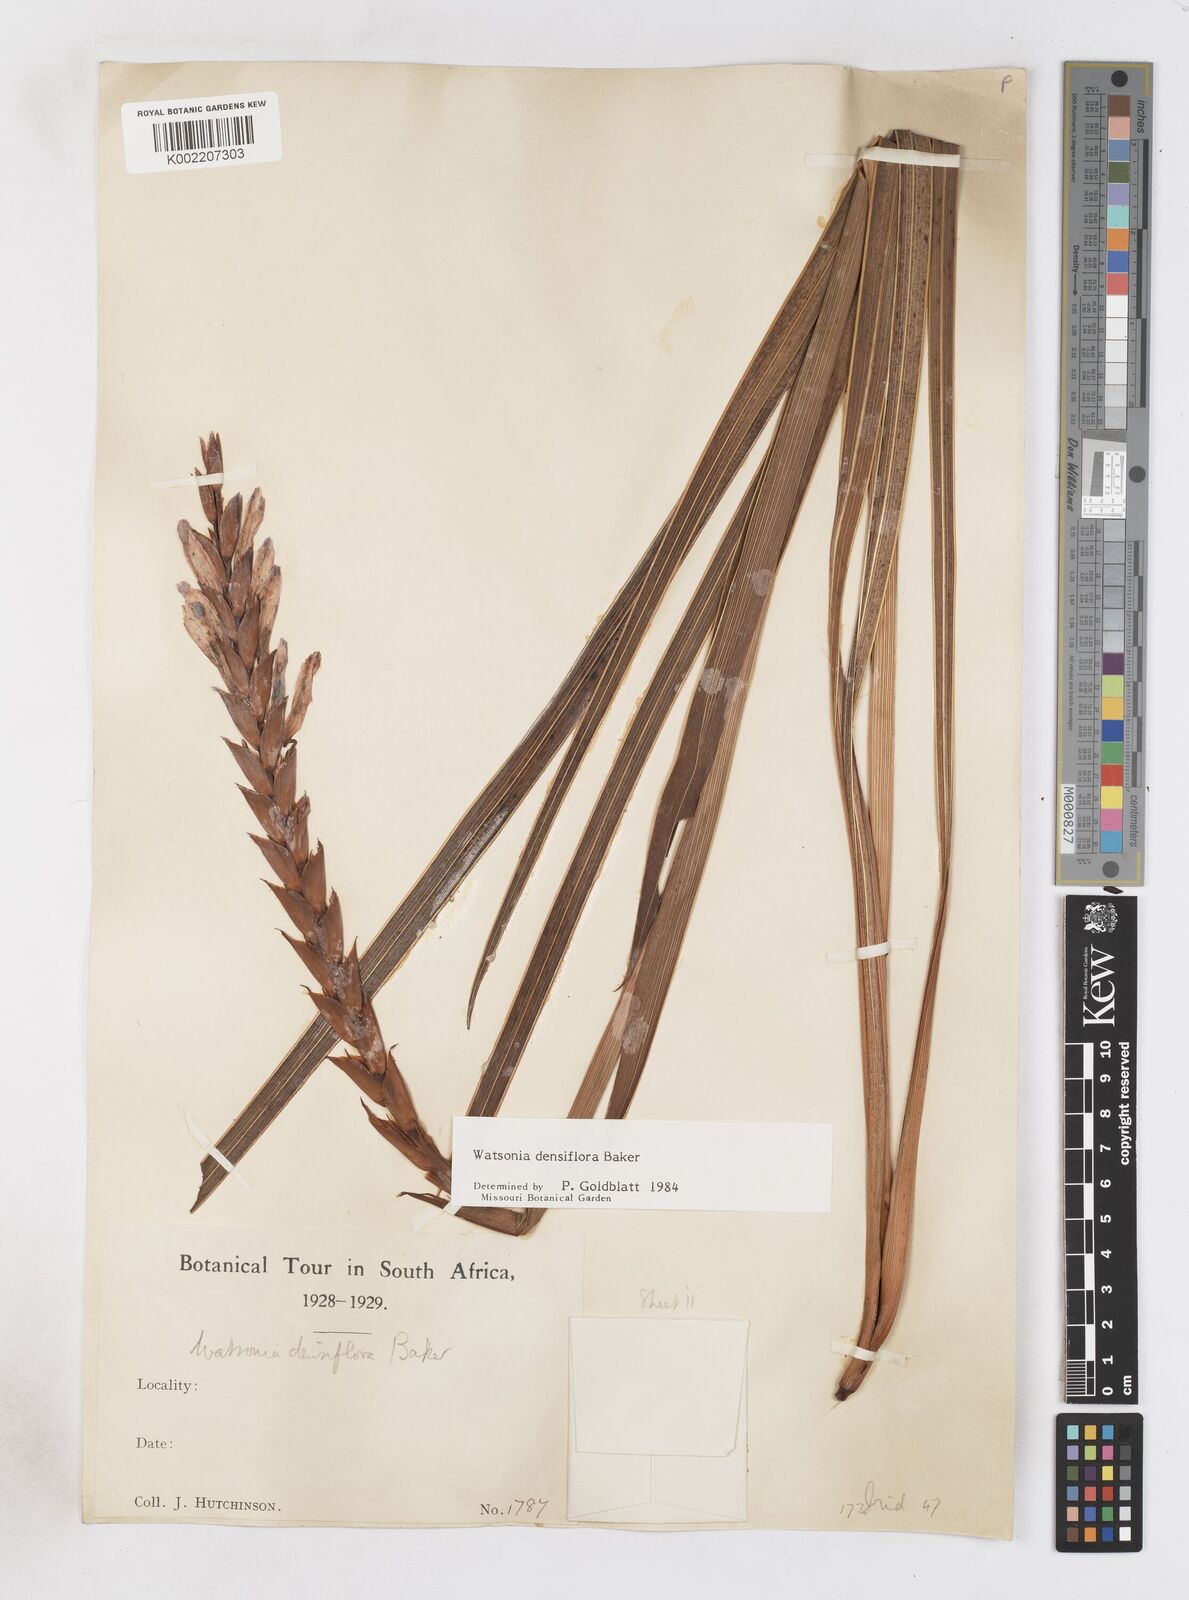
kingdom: Plantae
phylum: Tracheophyta
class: Liliopsida
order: Asparagales
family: Iridaceae
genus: Watsonia
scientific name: Watsonia densiflora
